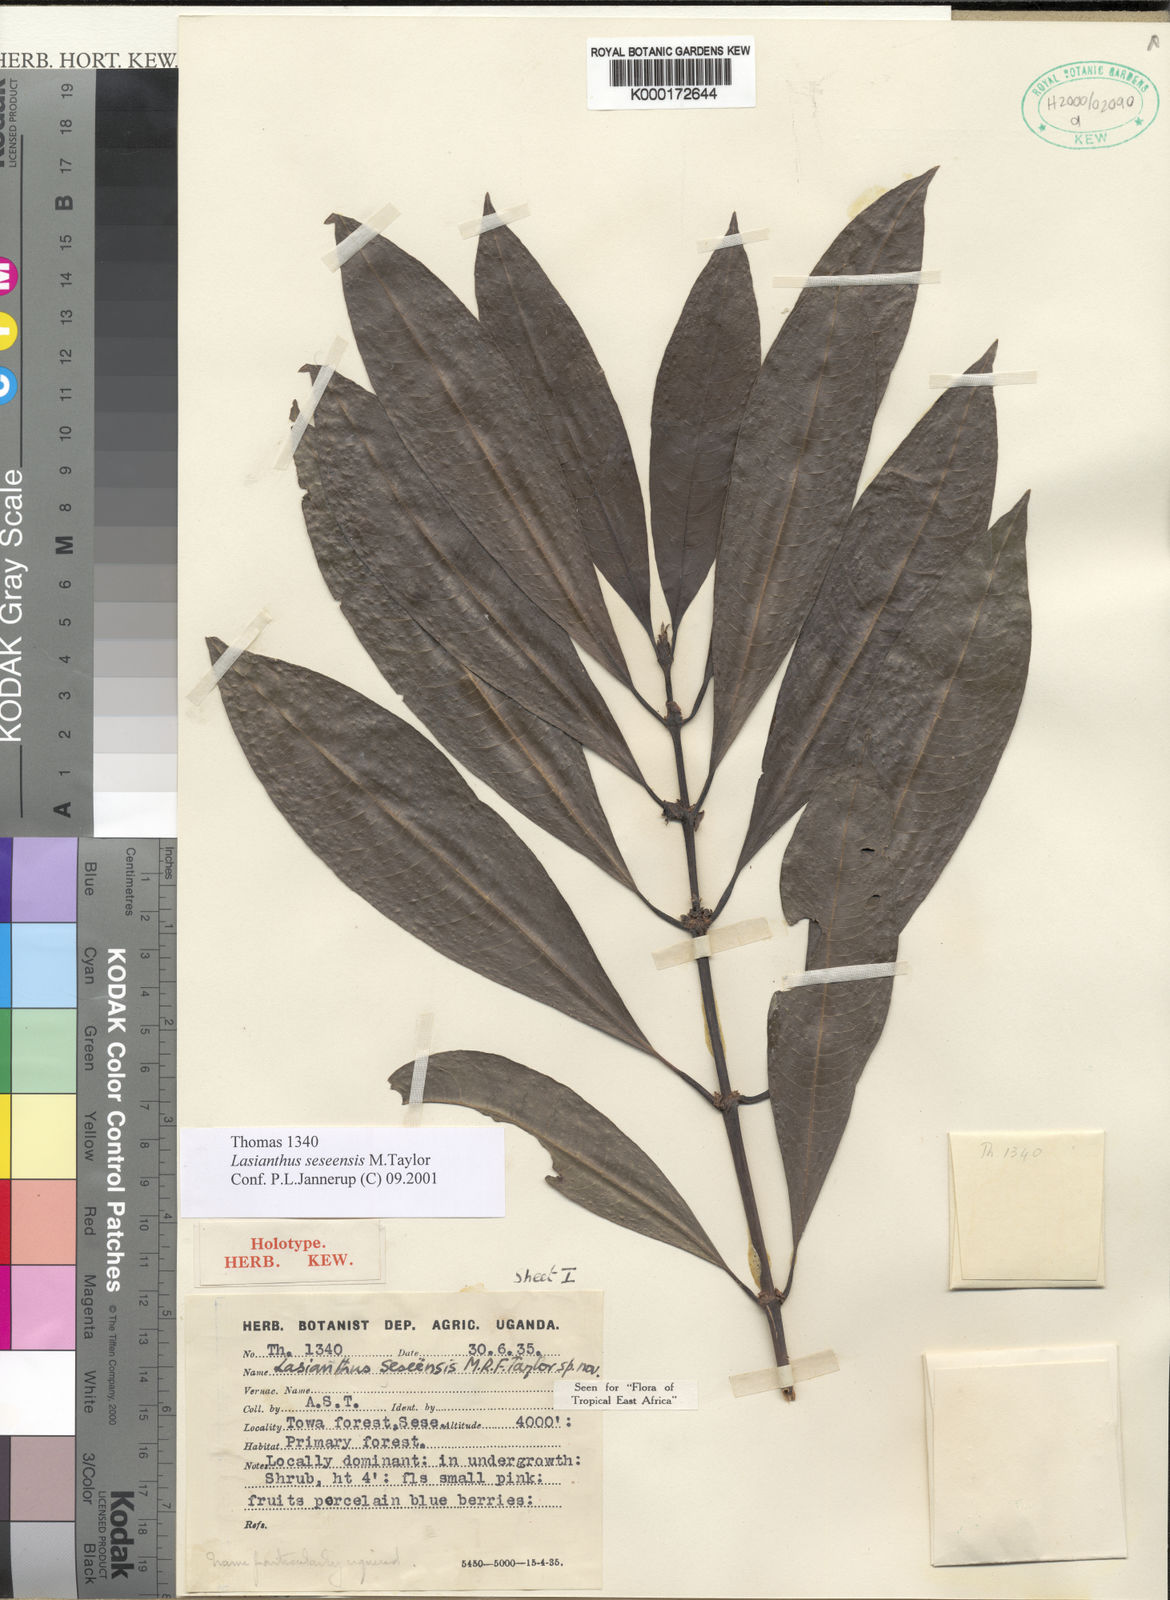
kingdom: Plantae
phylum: Tracheophyta
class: Magnoliopsida
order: Gentianales
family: Rubiaceae
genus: Lasianthus
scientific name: Lasianthus batangensis
